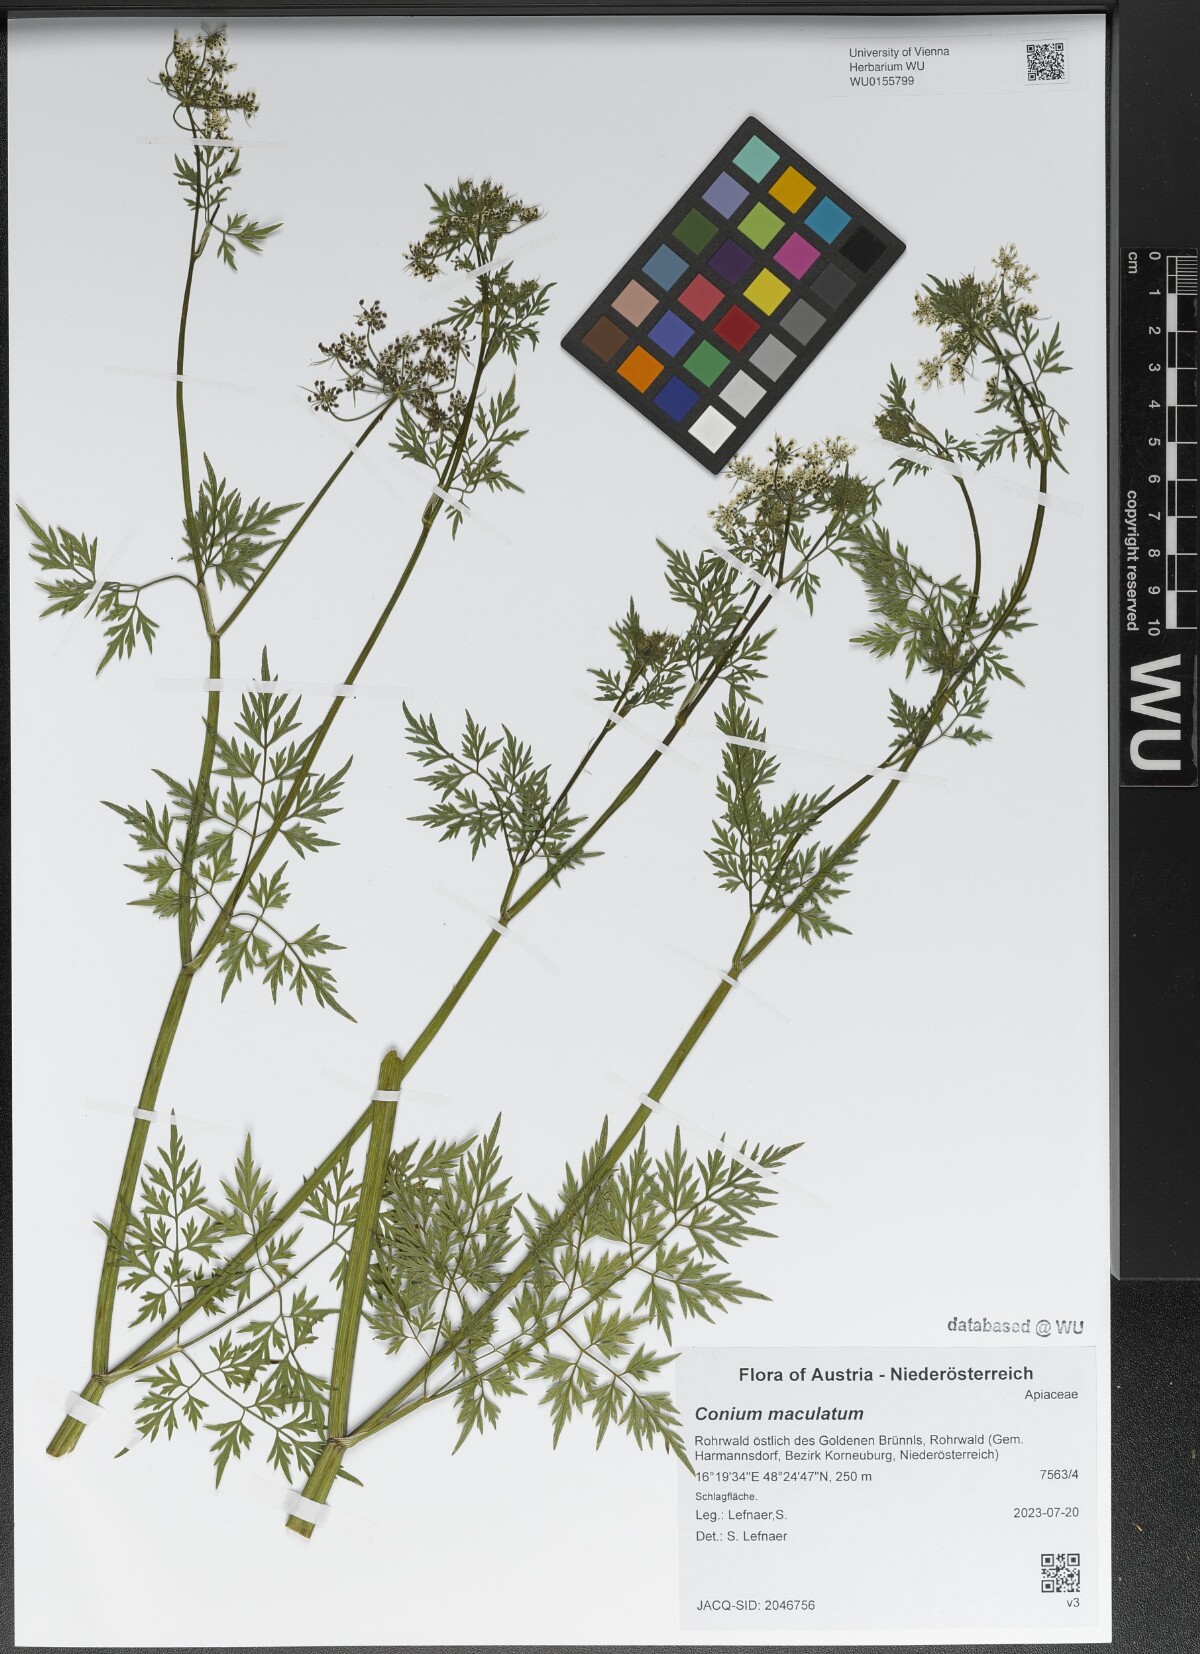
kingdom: Plantae
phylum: Tracheophyta
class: Magnoliopsida
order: Apiales
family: Apiaceae
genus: Conium
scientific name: Conium maculatum
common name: Hemlock
